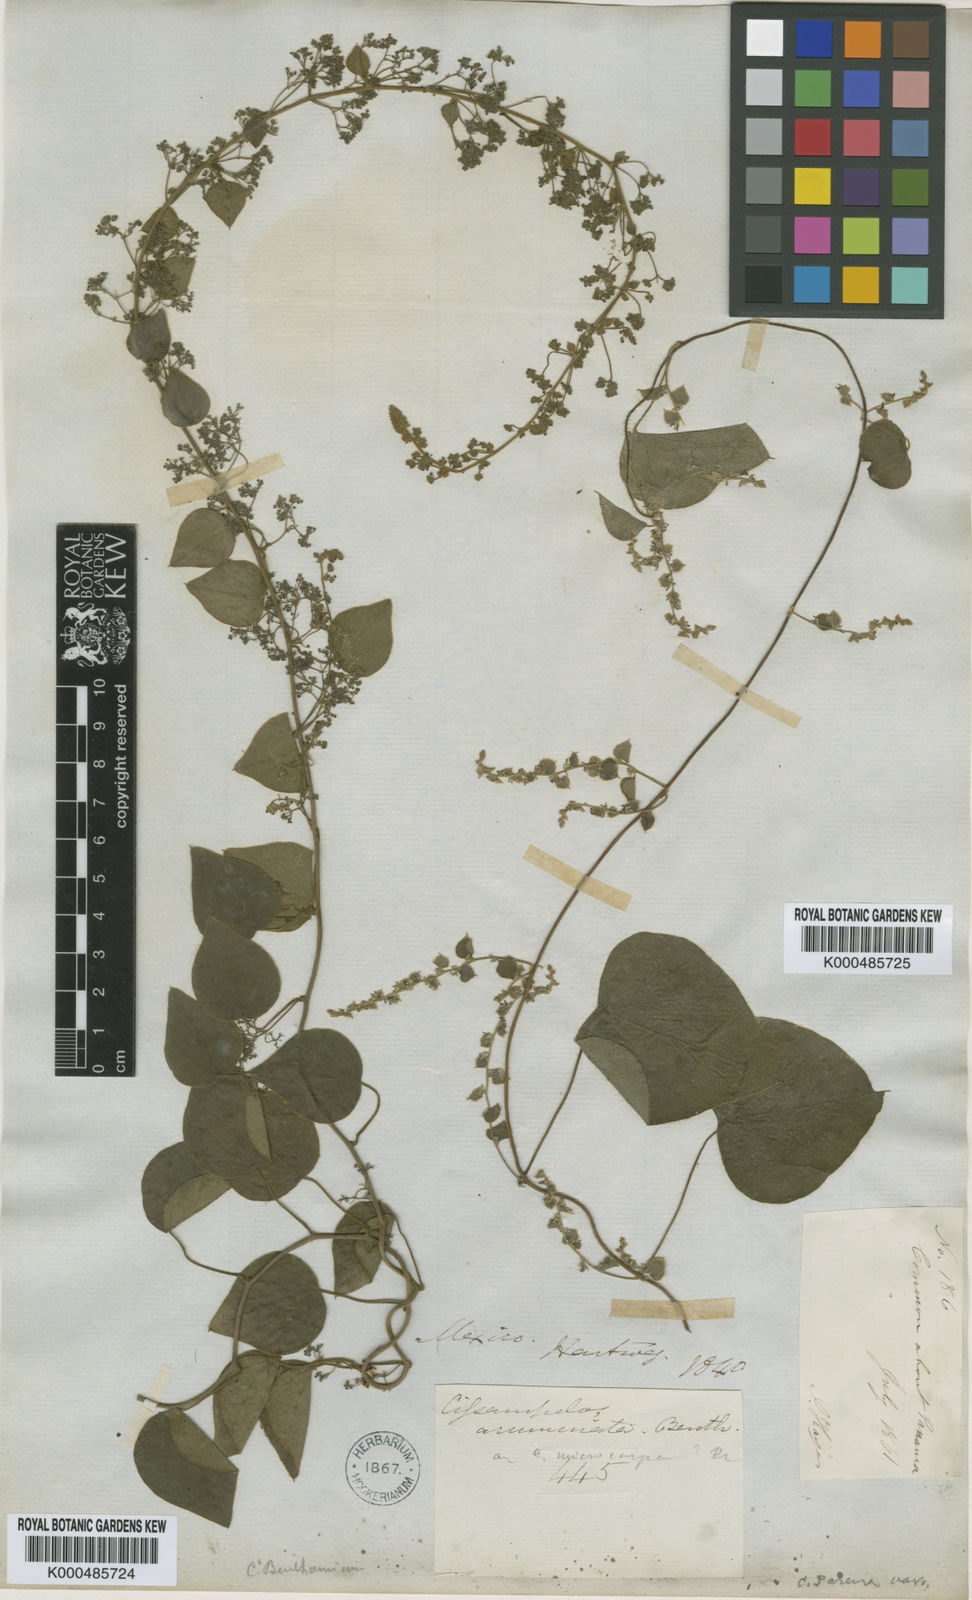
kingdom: Plantae
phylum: Tracheophyta
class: Magnoliopsida
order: Ranunculales
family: Menispermaceae
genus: Cissampelos
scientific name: Cissampelos pareira
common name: Velvetleaf
